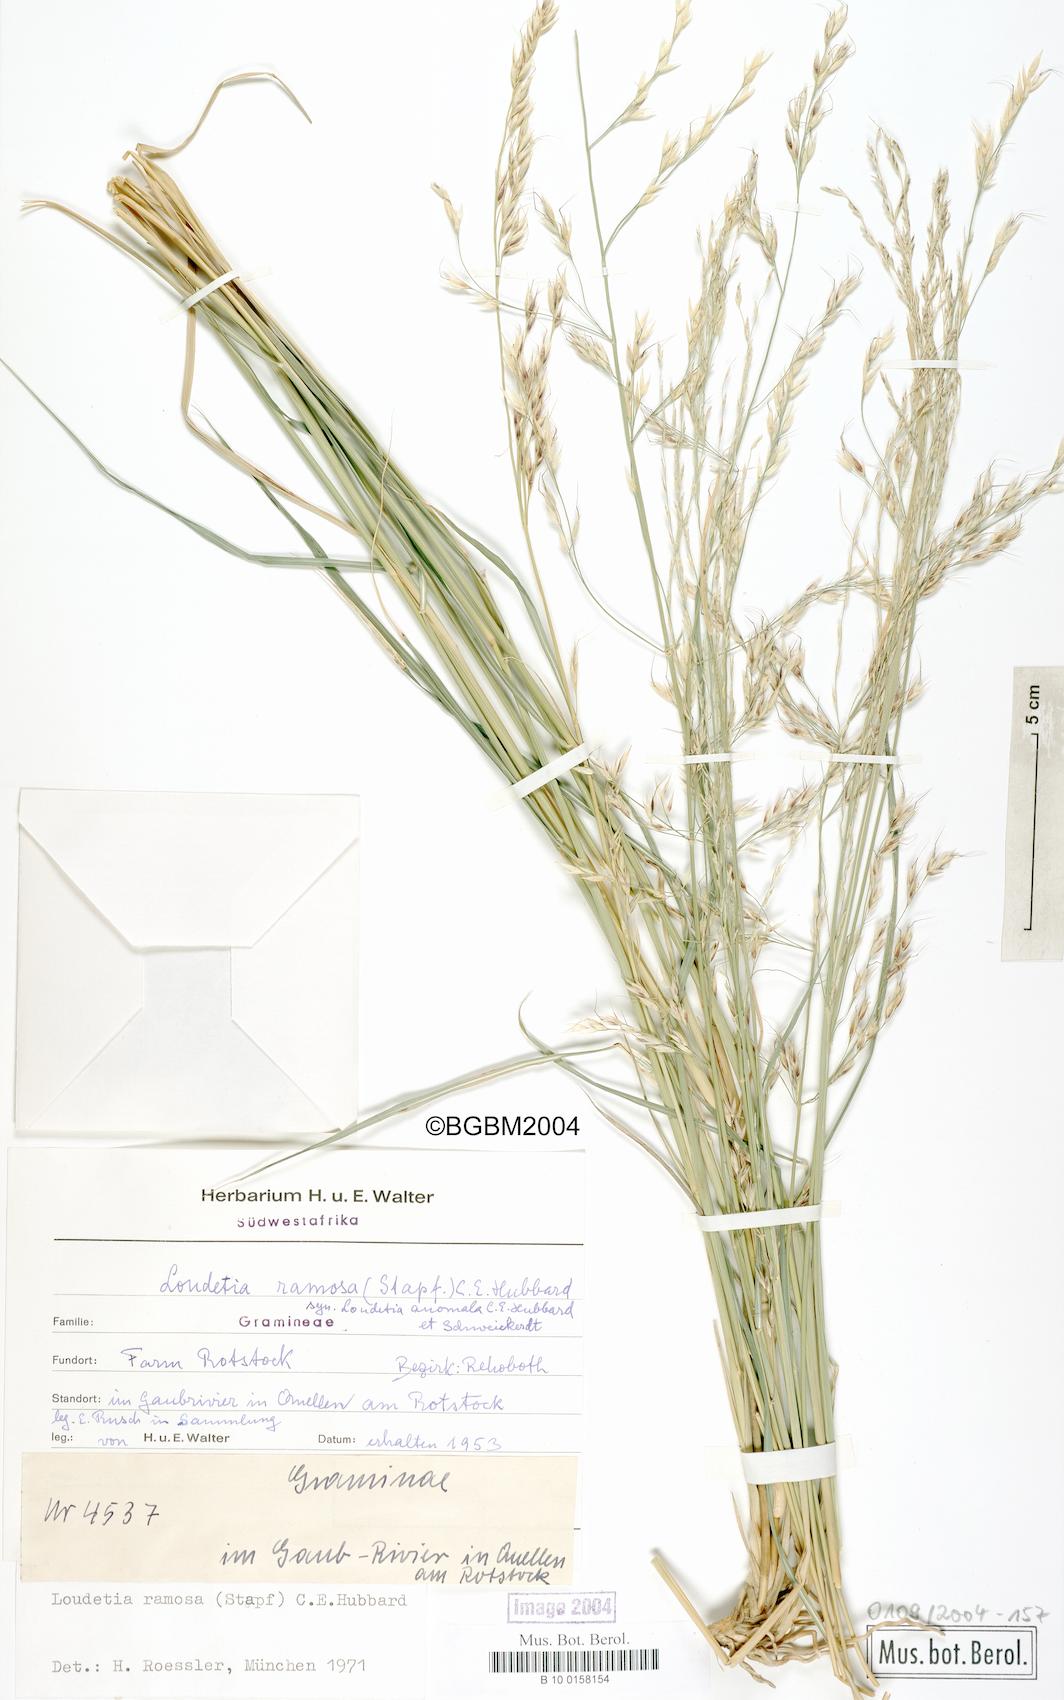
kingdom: Plantae
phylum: Tracheophyta
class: Liliopsida
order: Poales
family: Poaceae
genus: Danthoniopsis
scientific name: Danthoniopsis ramosa
